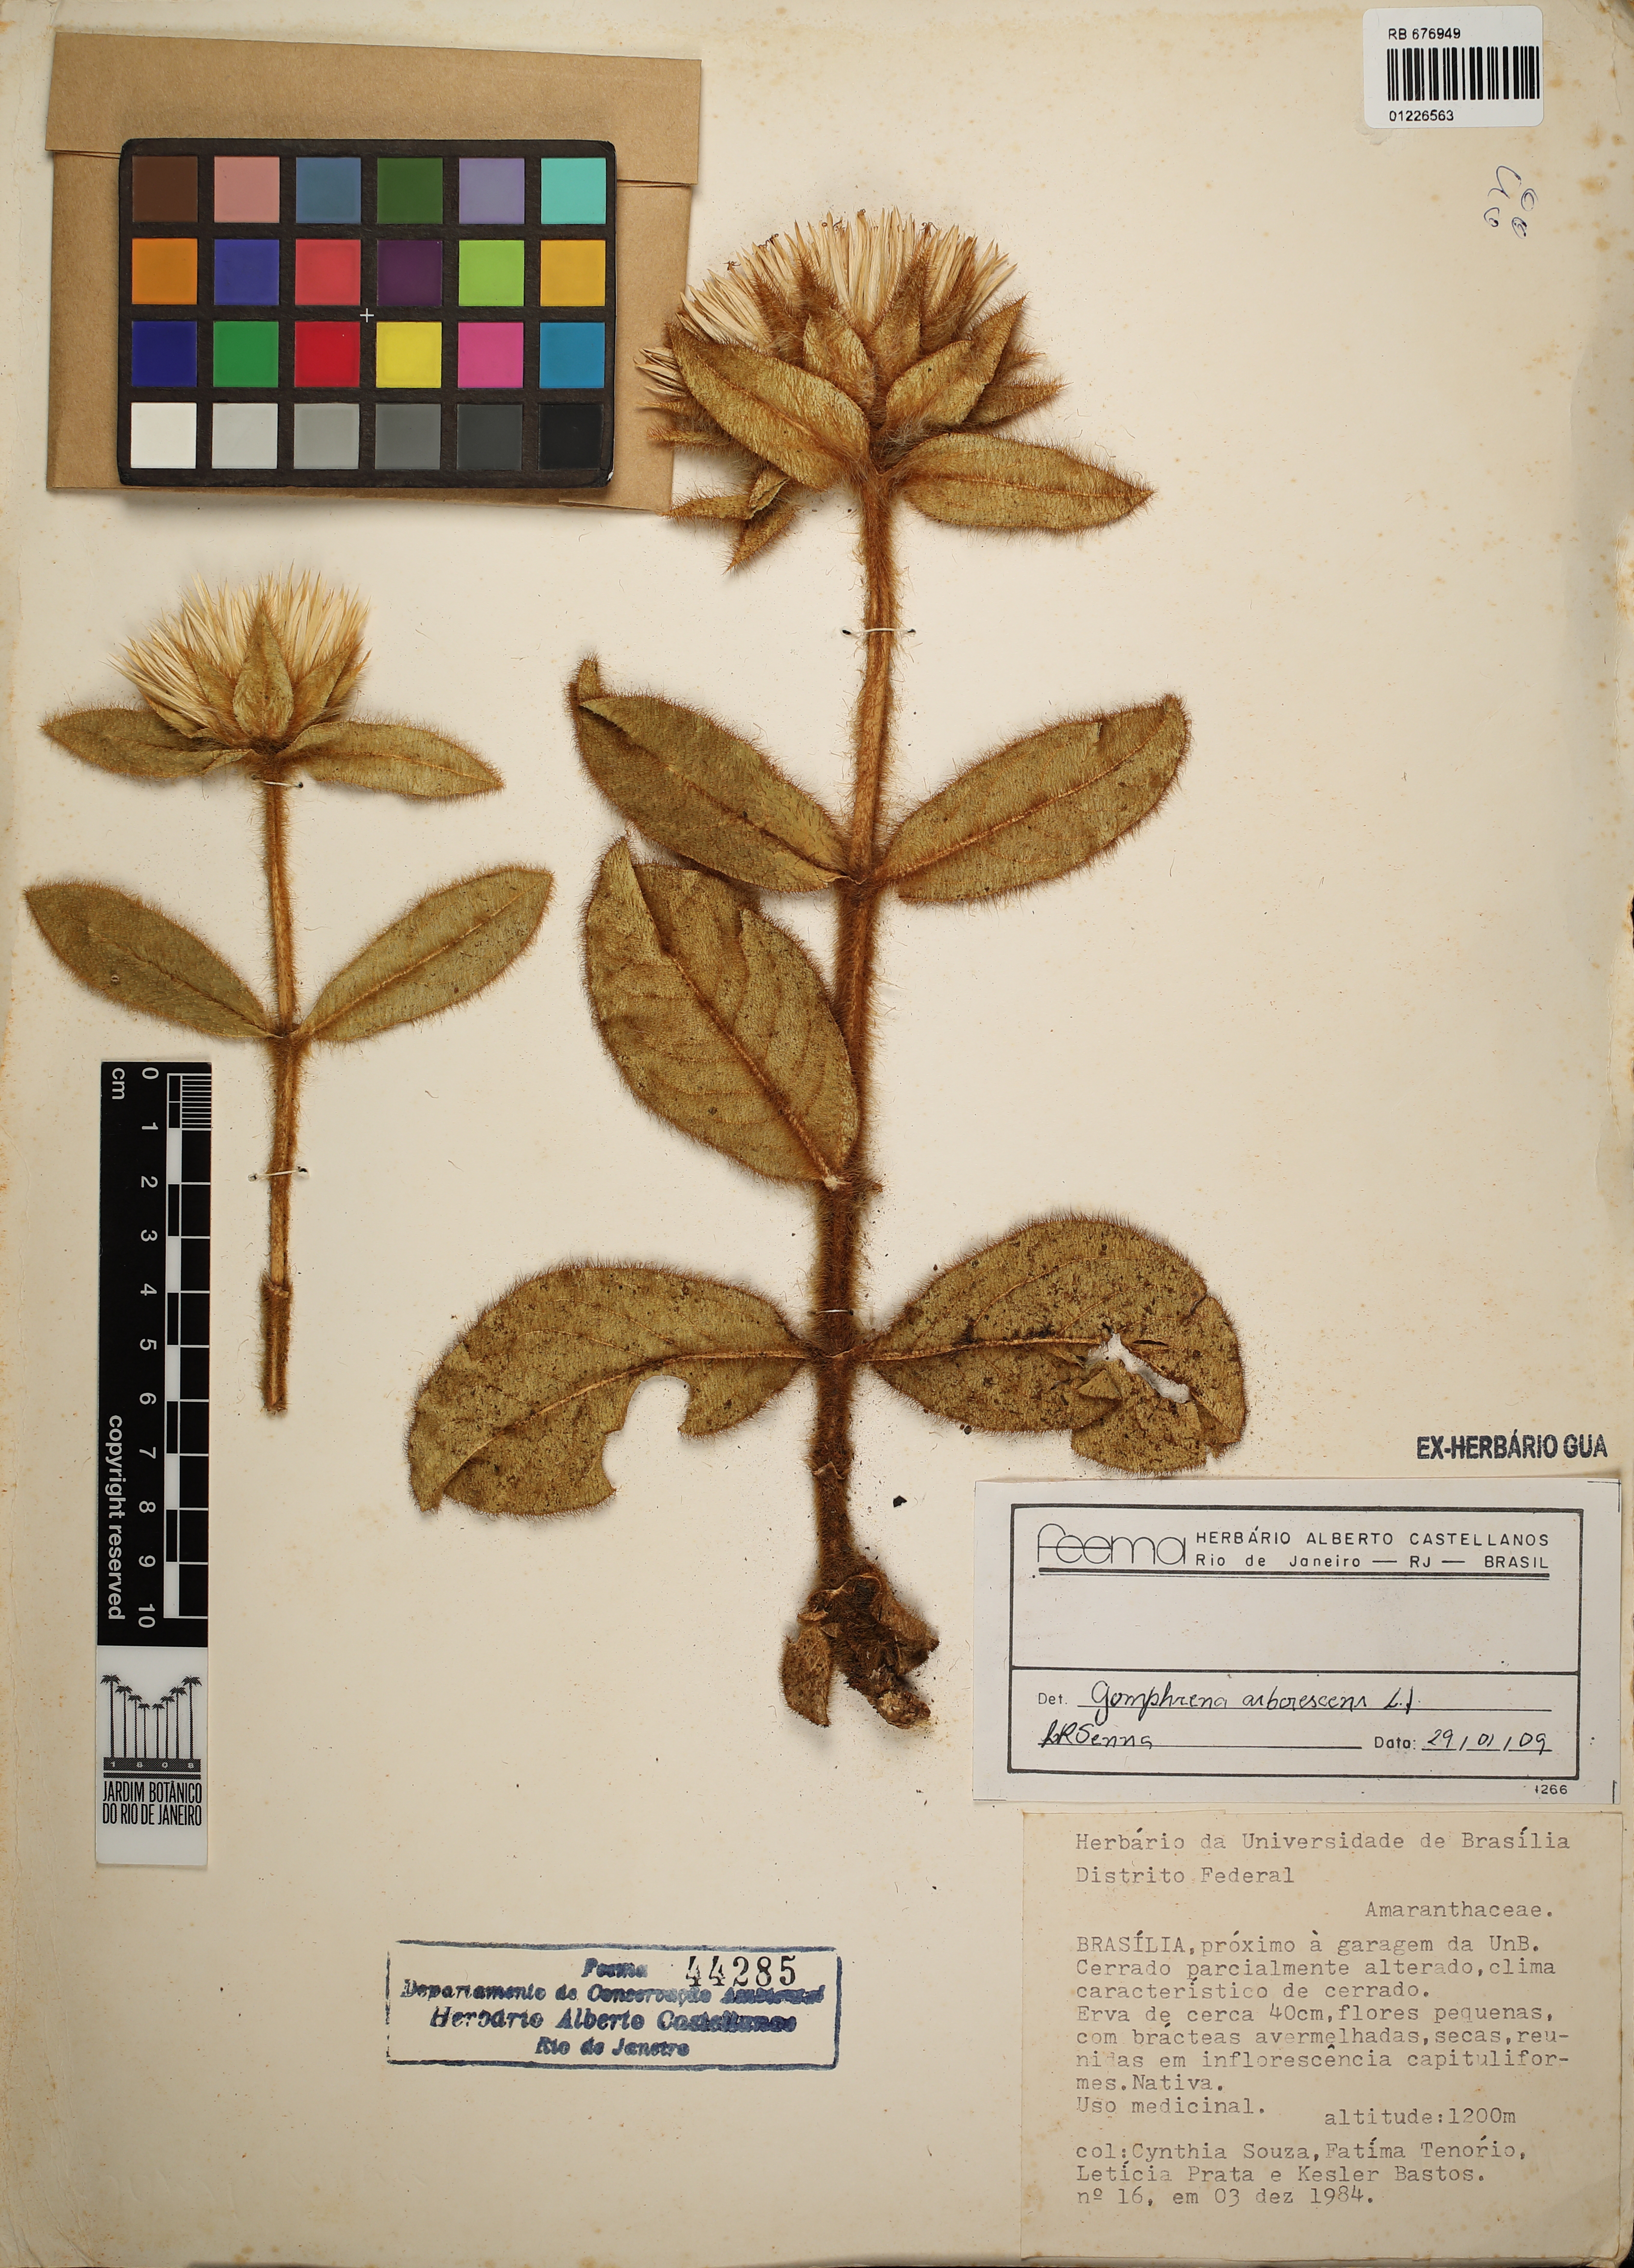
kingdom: Plantae
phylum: Tracheophyta
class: Magnoliopsida
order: Caryophyllales
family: Amaranthaceae
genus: Gomphrena
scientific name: Gomphrena arborescens
